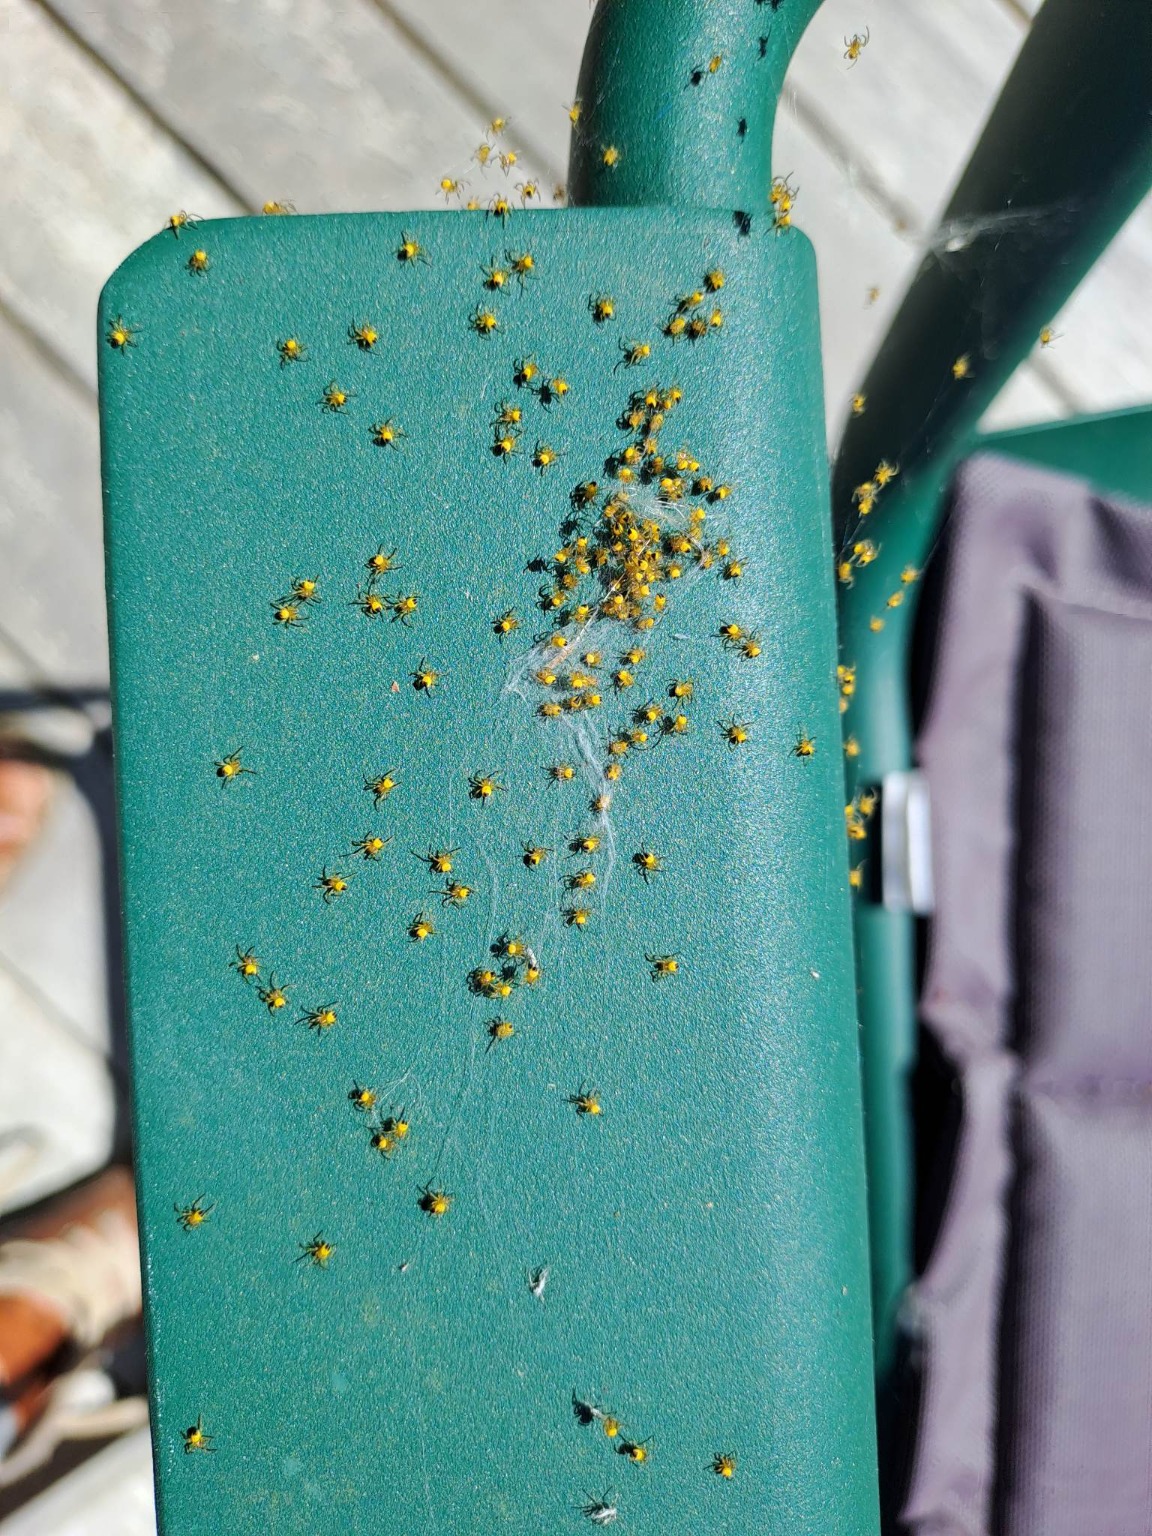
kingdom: Animalia
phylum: Arthropoda
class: Arachnida
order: Araneae
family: Araneidae
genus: Araneus
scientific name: Araneus diadematus
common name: Korsedderkop
